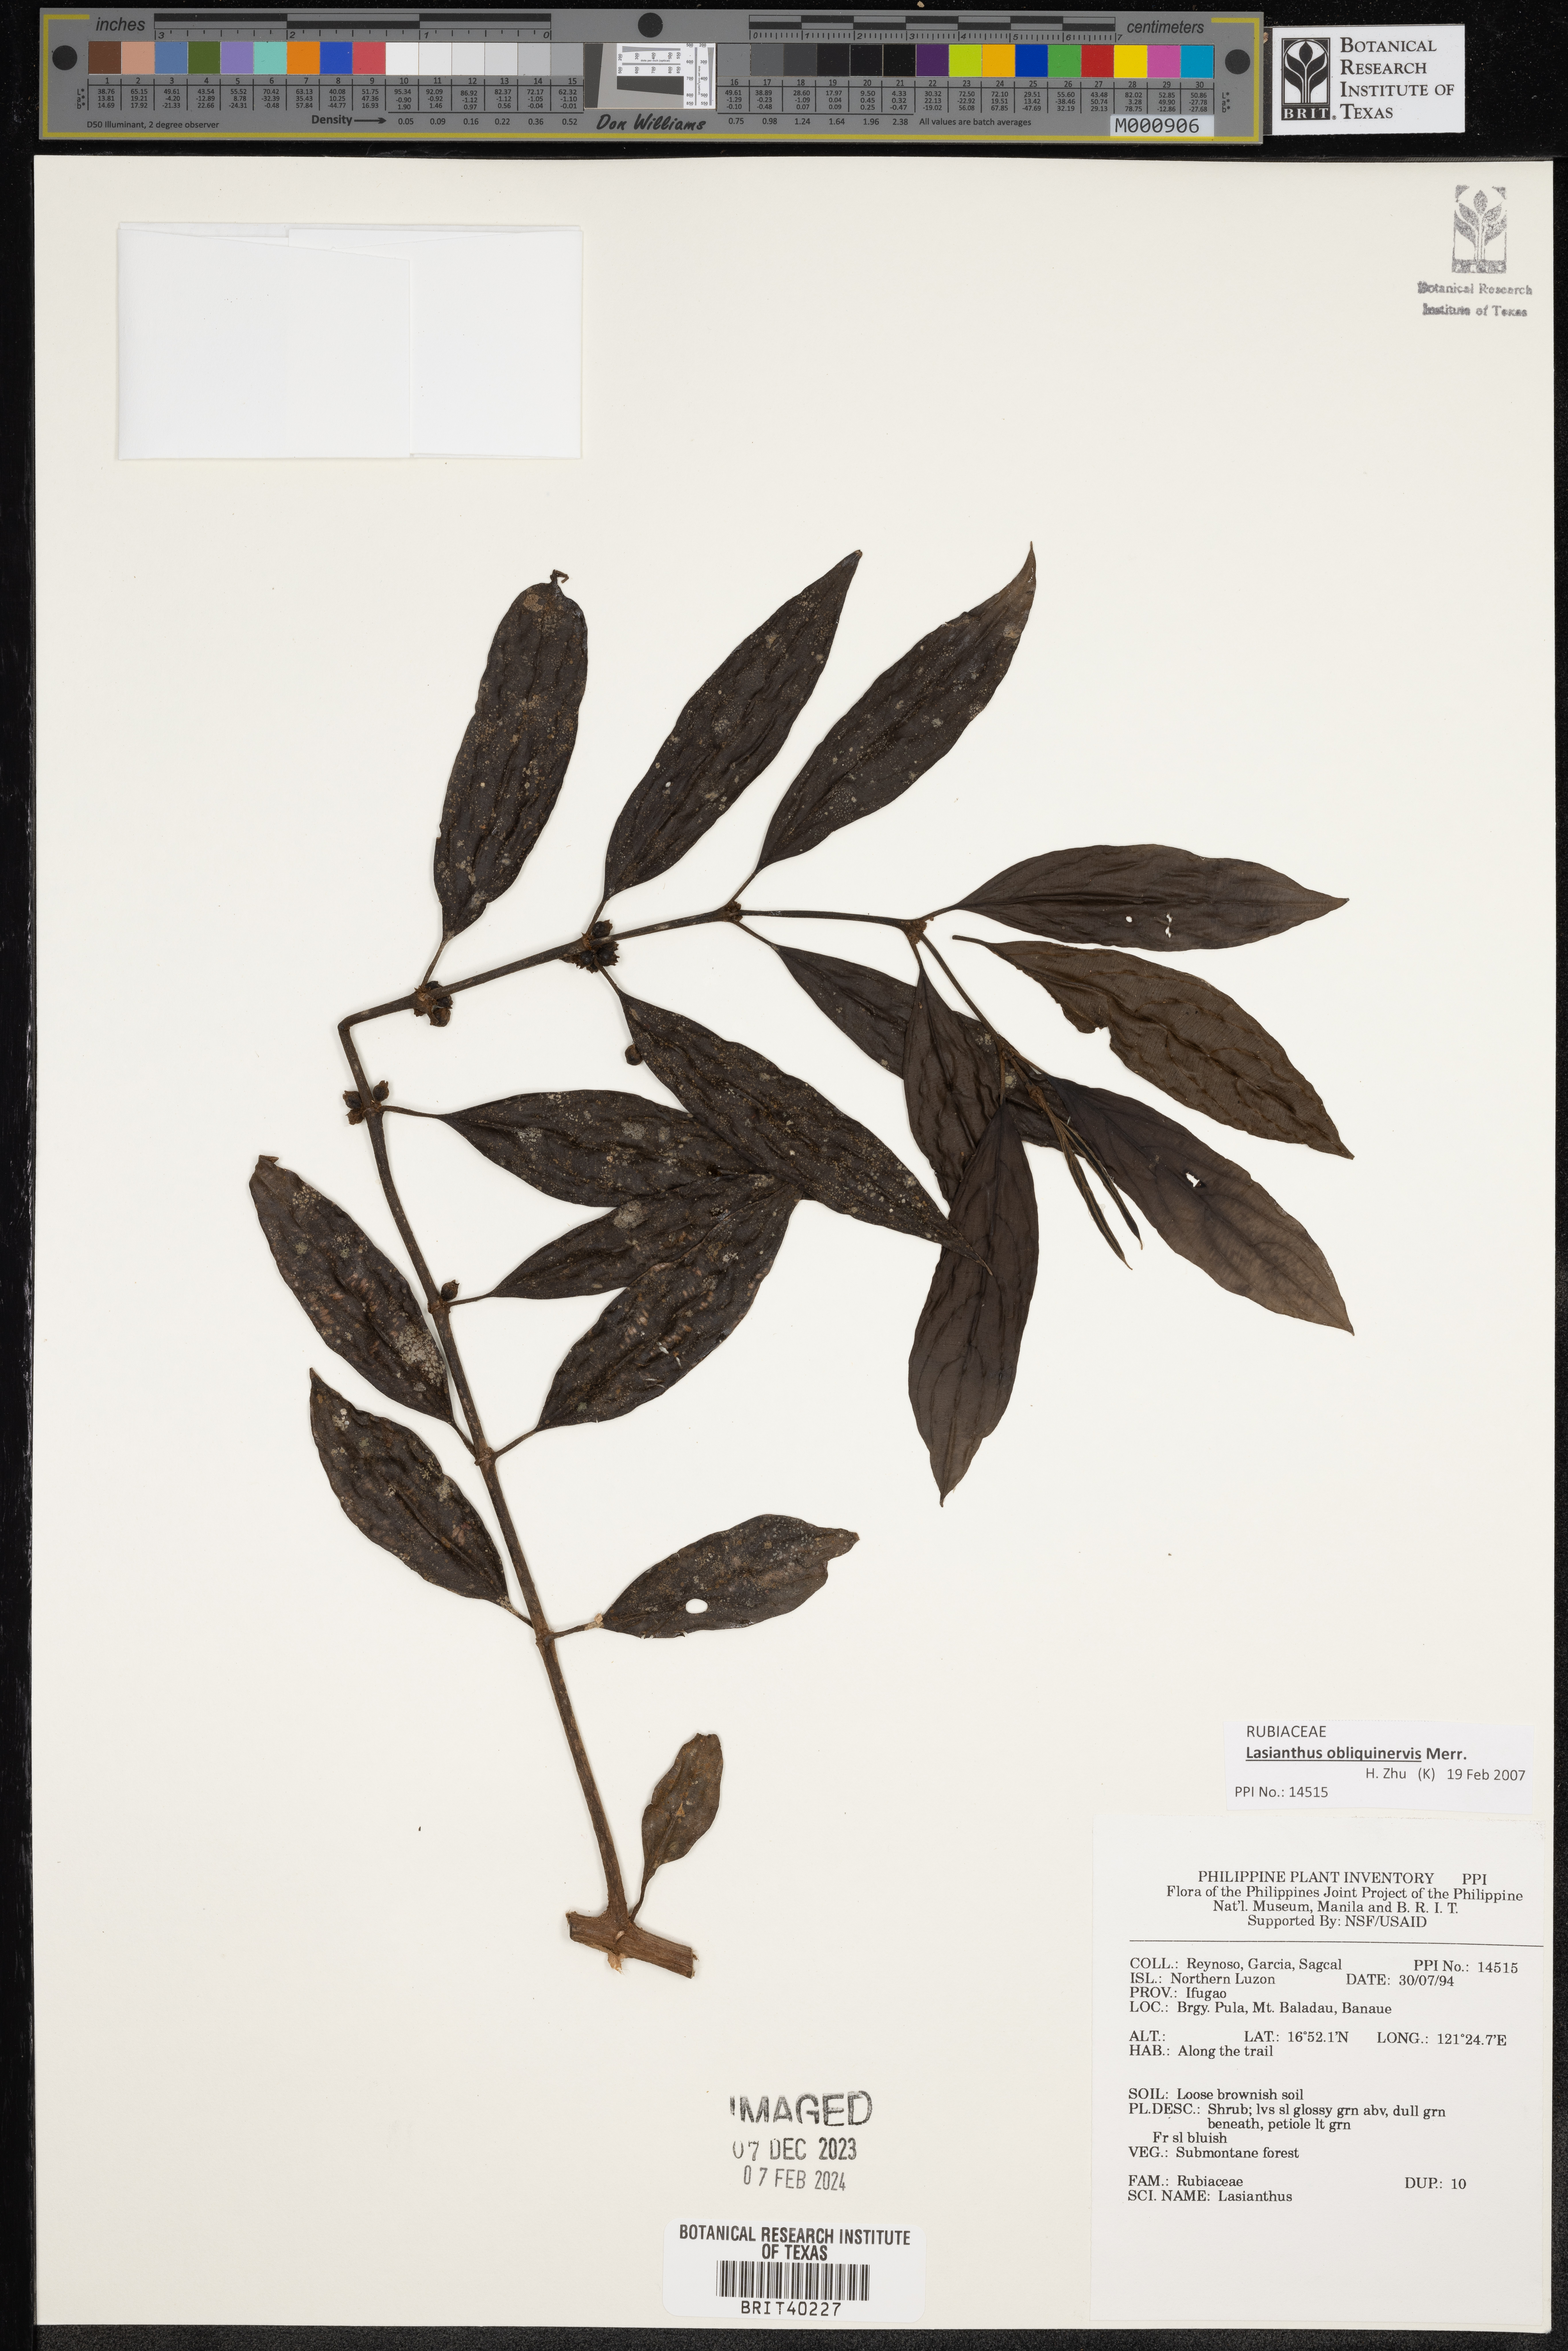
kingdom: Plantae
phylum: Tracheophyta
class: Magnoliopsida
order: Gentianales
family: Rubiaceae
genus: Lasianthus
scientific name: Lasianthus
